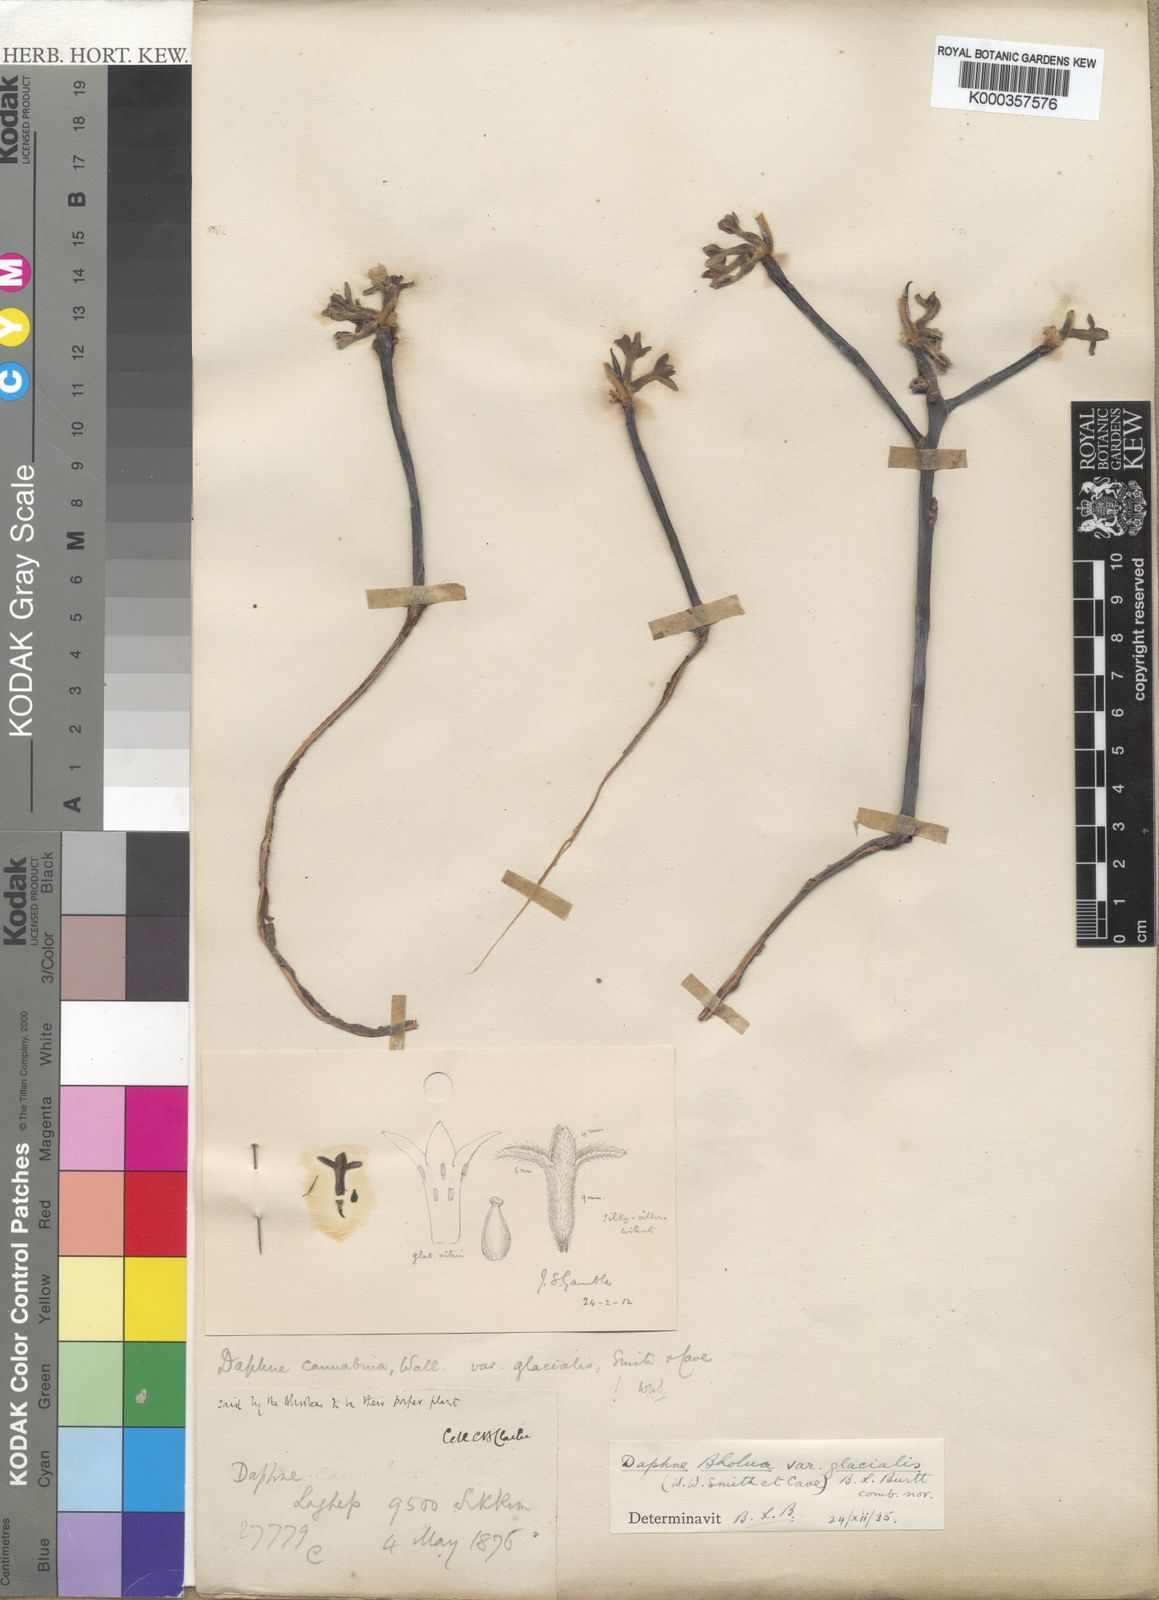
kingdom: Plantae
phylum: Tracheophyta
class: Magnoliopsida
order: Malvales
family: Thymelaeaceae
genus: Daphne
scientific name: Daphne bholua
